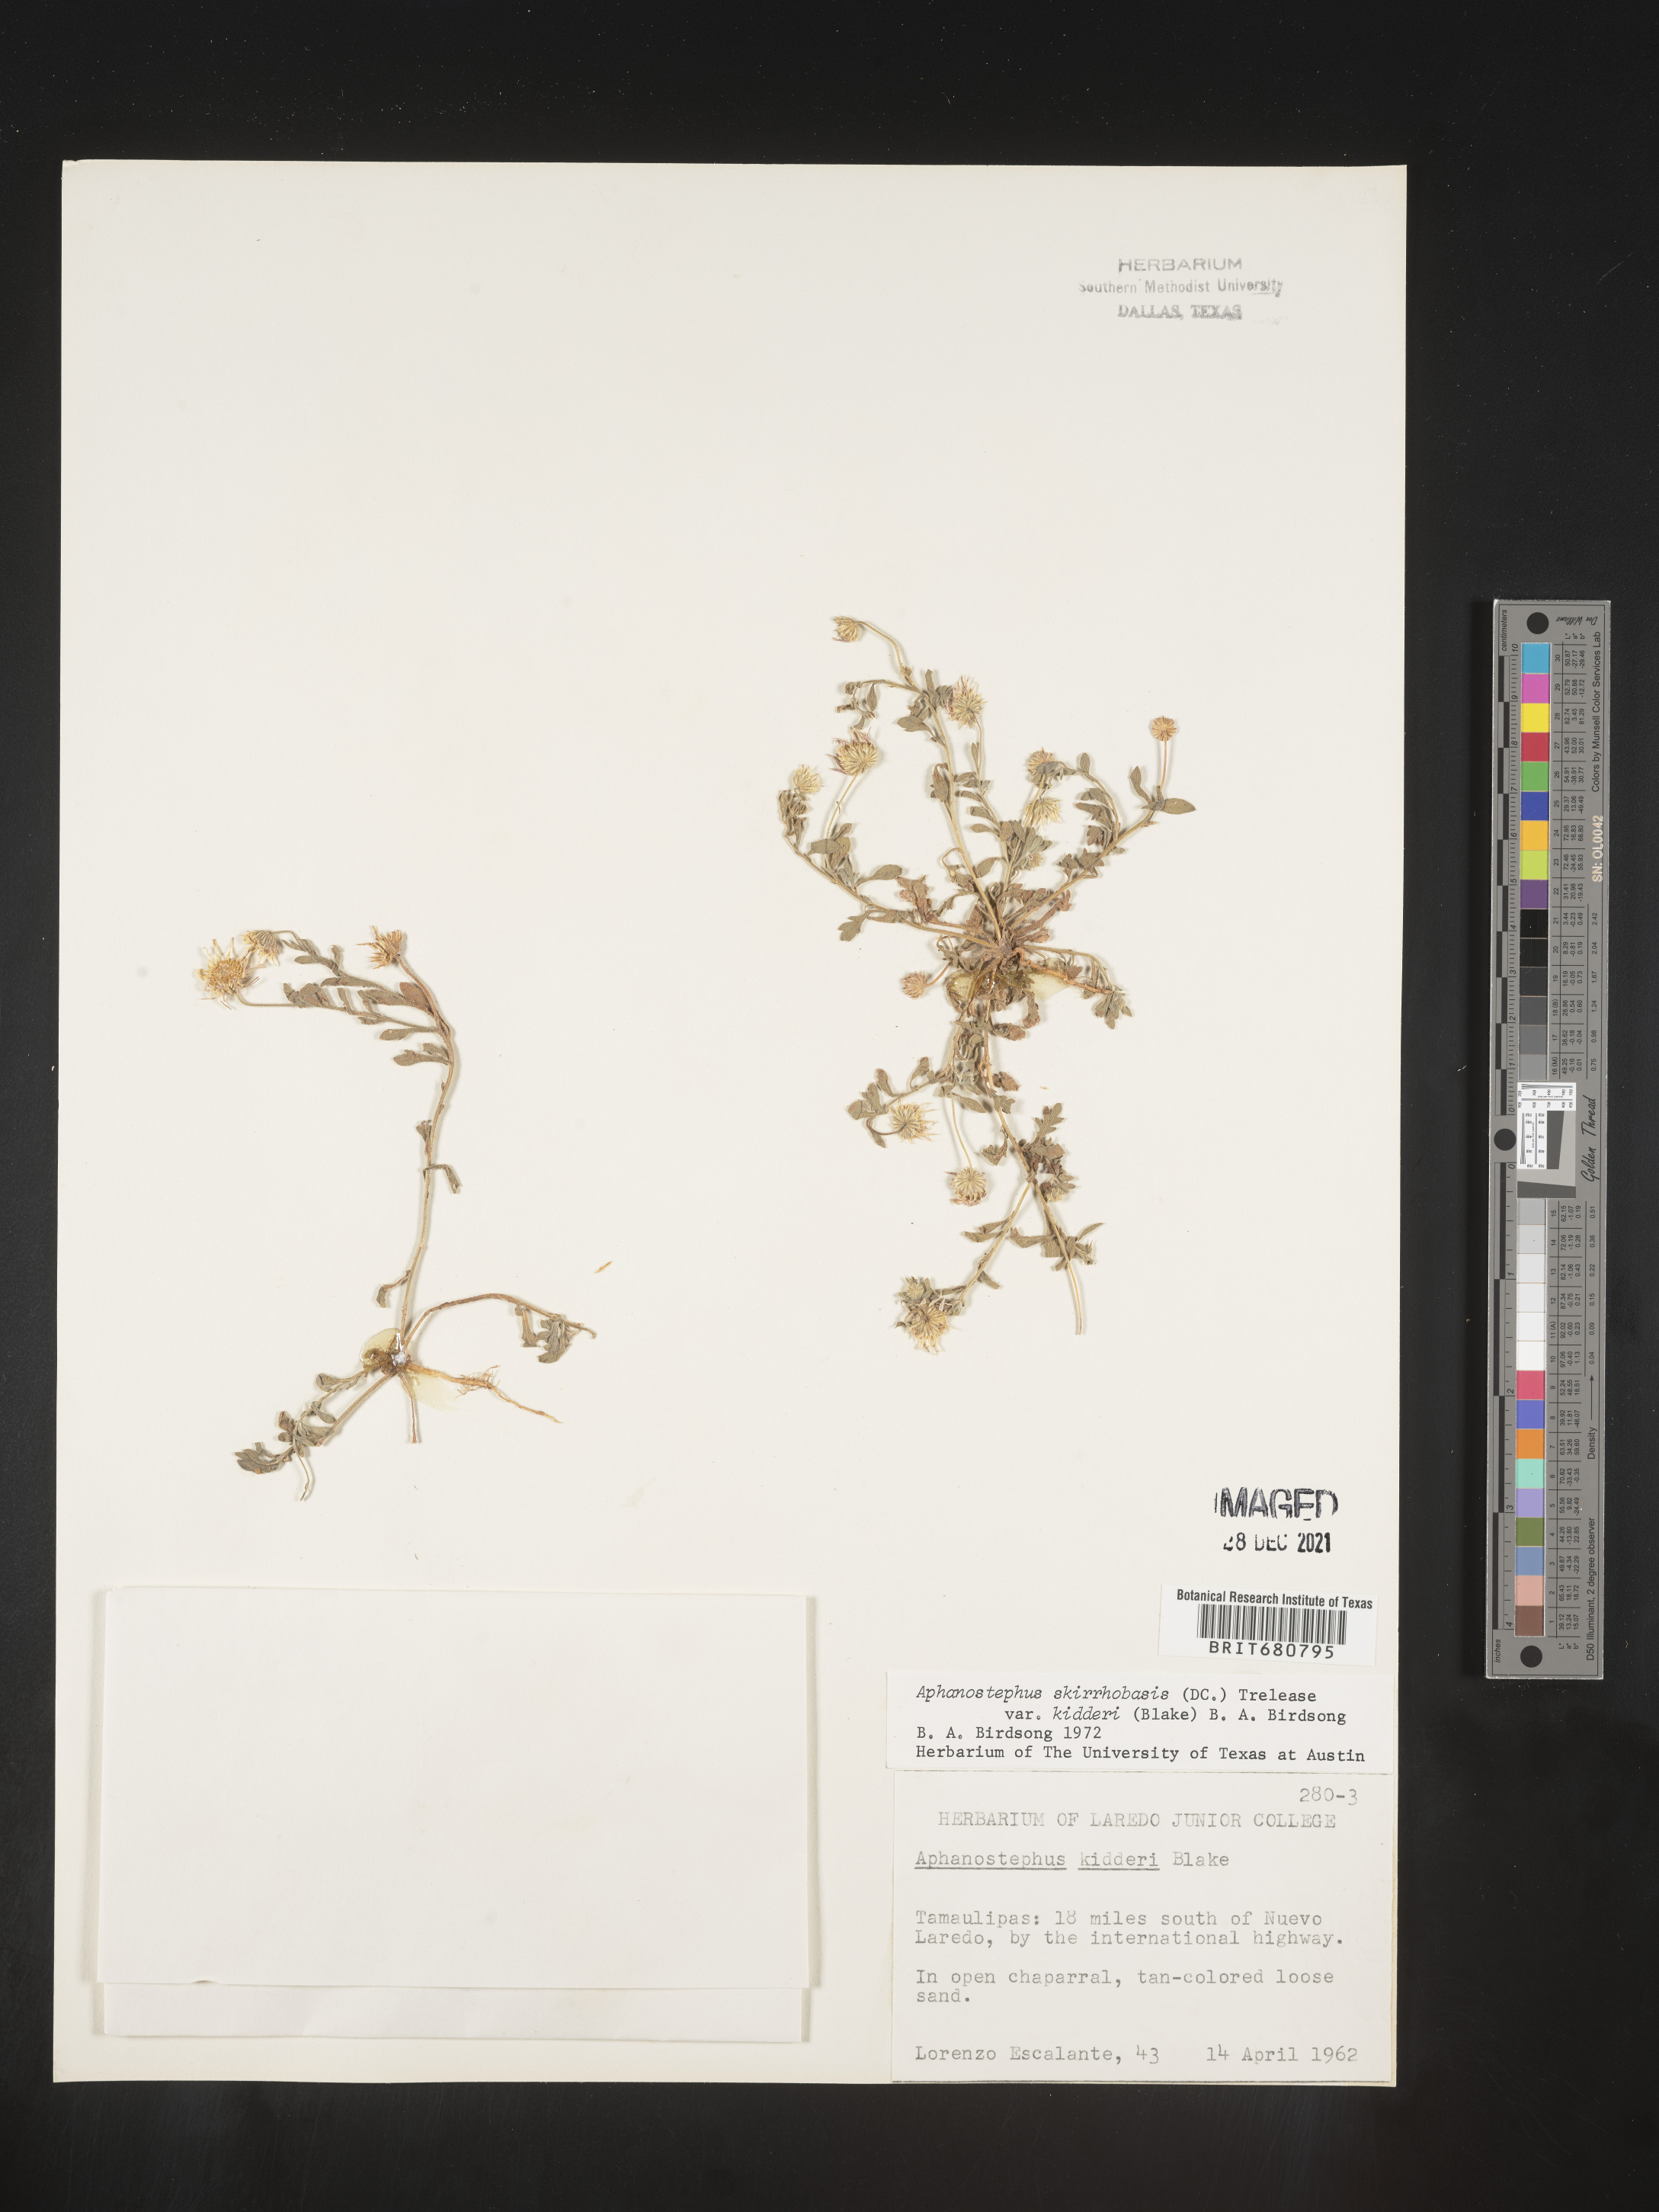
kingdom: Plantae
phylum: Tracheophyta
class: Magnoliopsida
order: Asterales
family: Asteraceae
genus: Aphanostephus
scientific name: Aphanostephus
